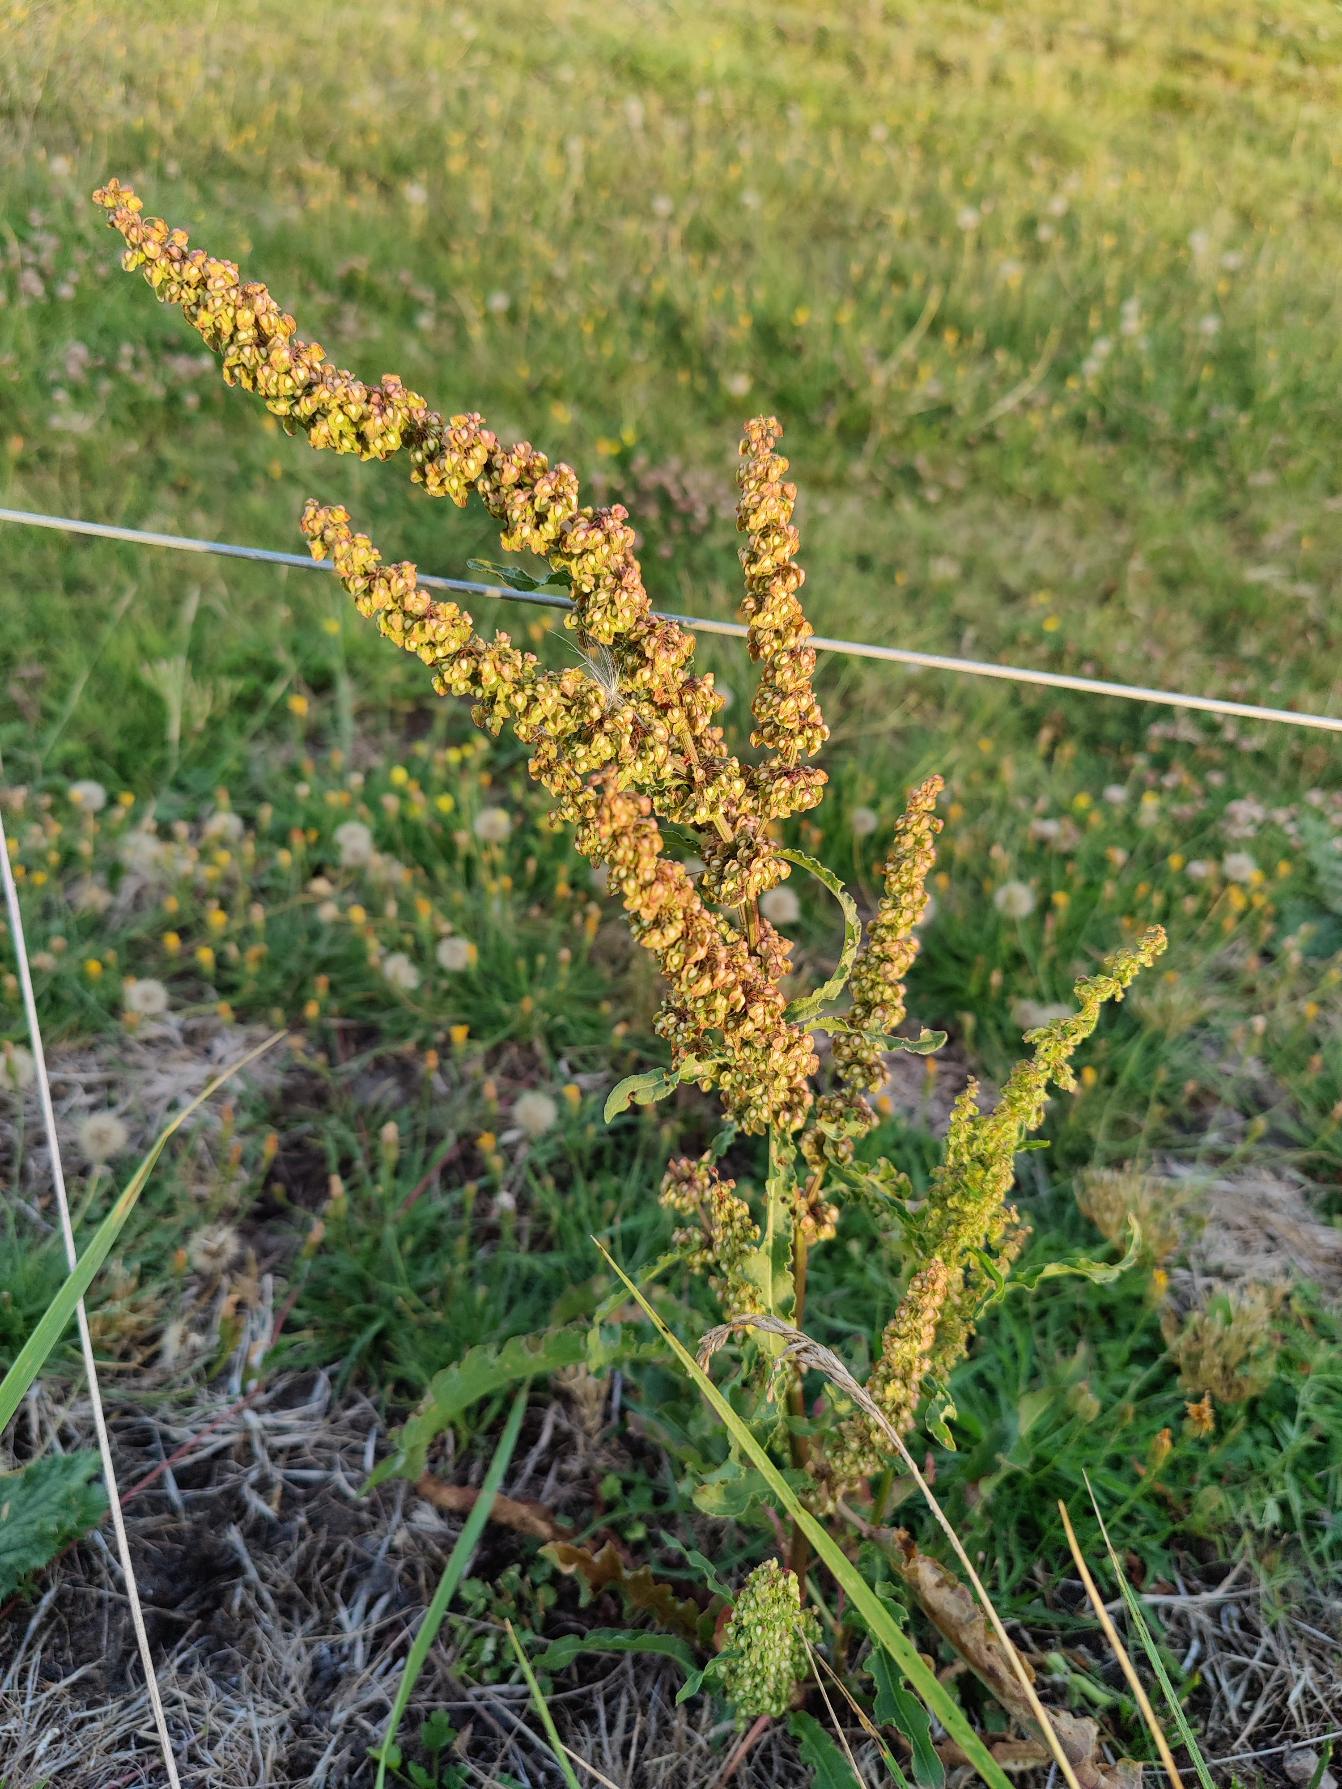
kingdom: Plantae
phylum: Tracheophyta
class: Magnoliopsida
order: Caryophyllales
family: Polygonaceae
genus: Rumex
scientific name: Rumex crispus
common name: Kruset skræppe
